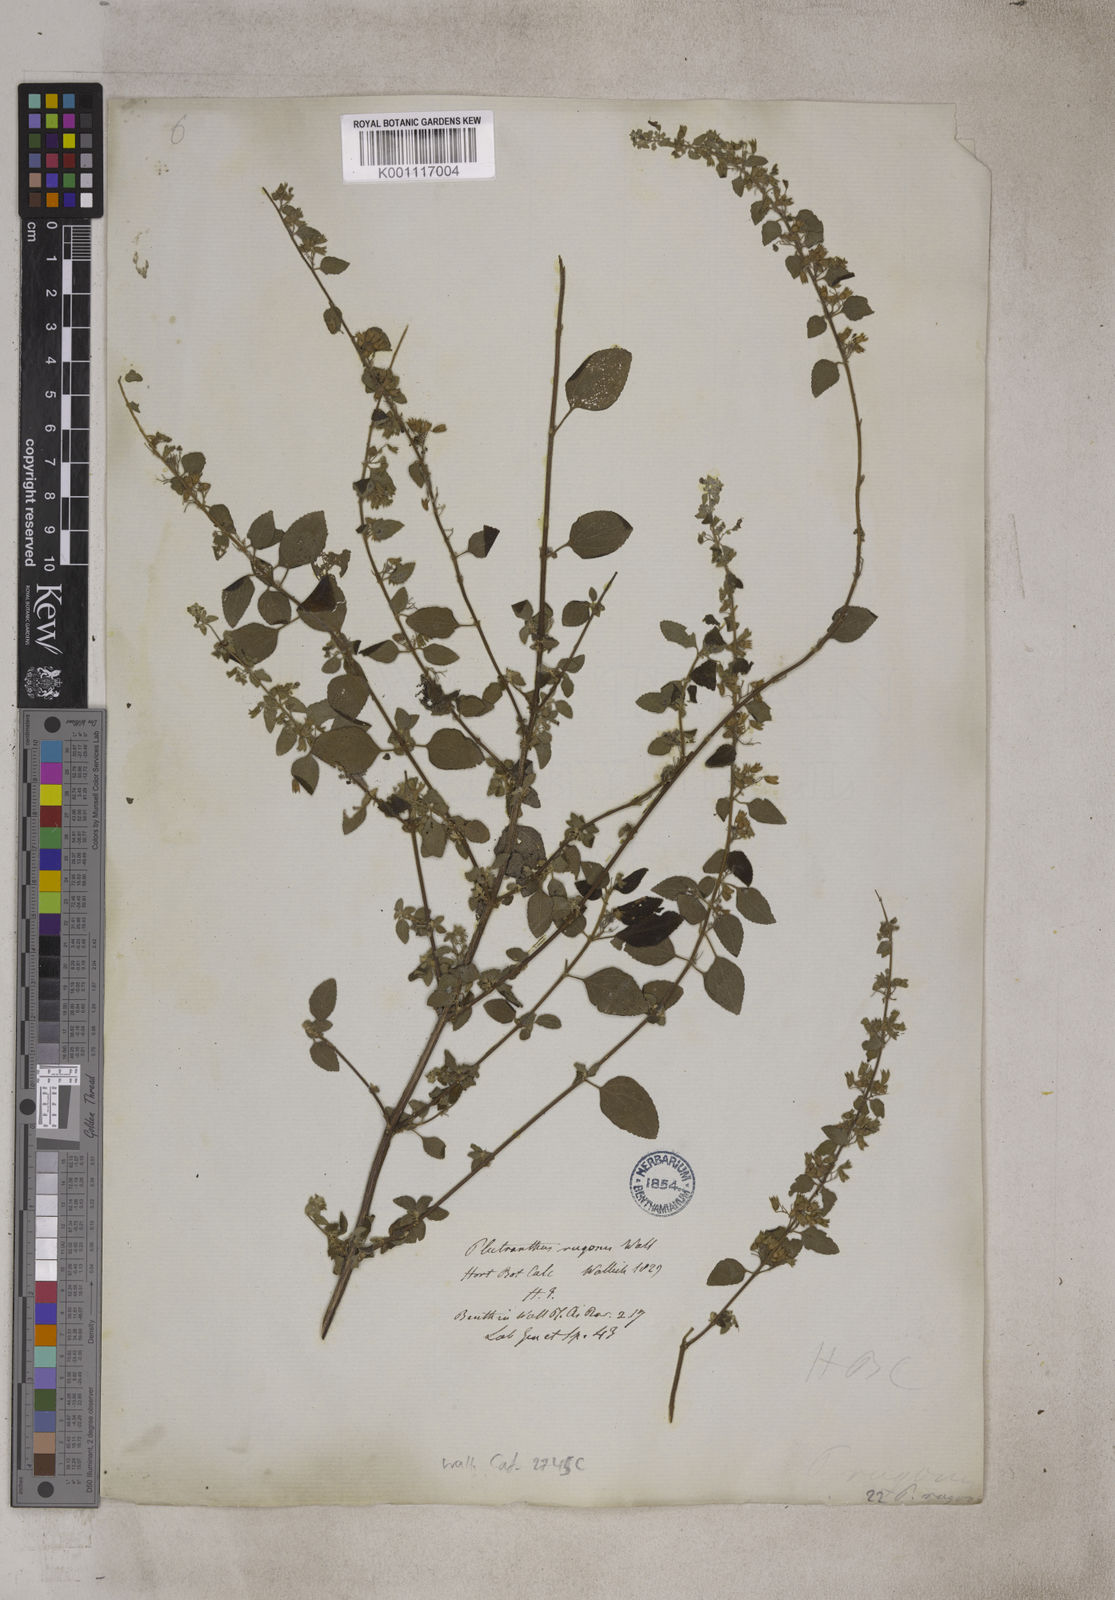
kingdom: Plantae
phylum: Tracheophyta
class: Magnoliopsida
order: Lamiales
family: Lamiaceae
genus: Plectranthus
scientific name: Plectranthus
